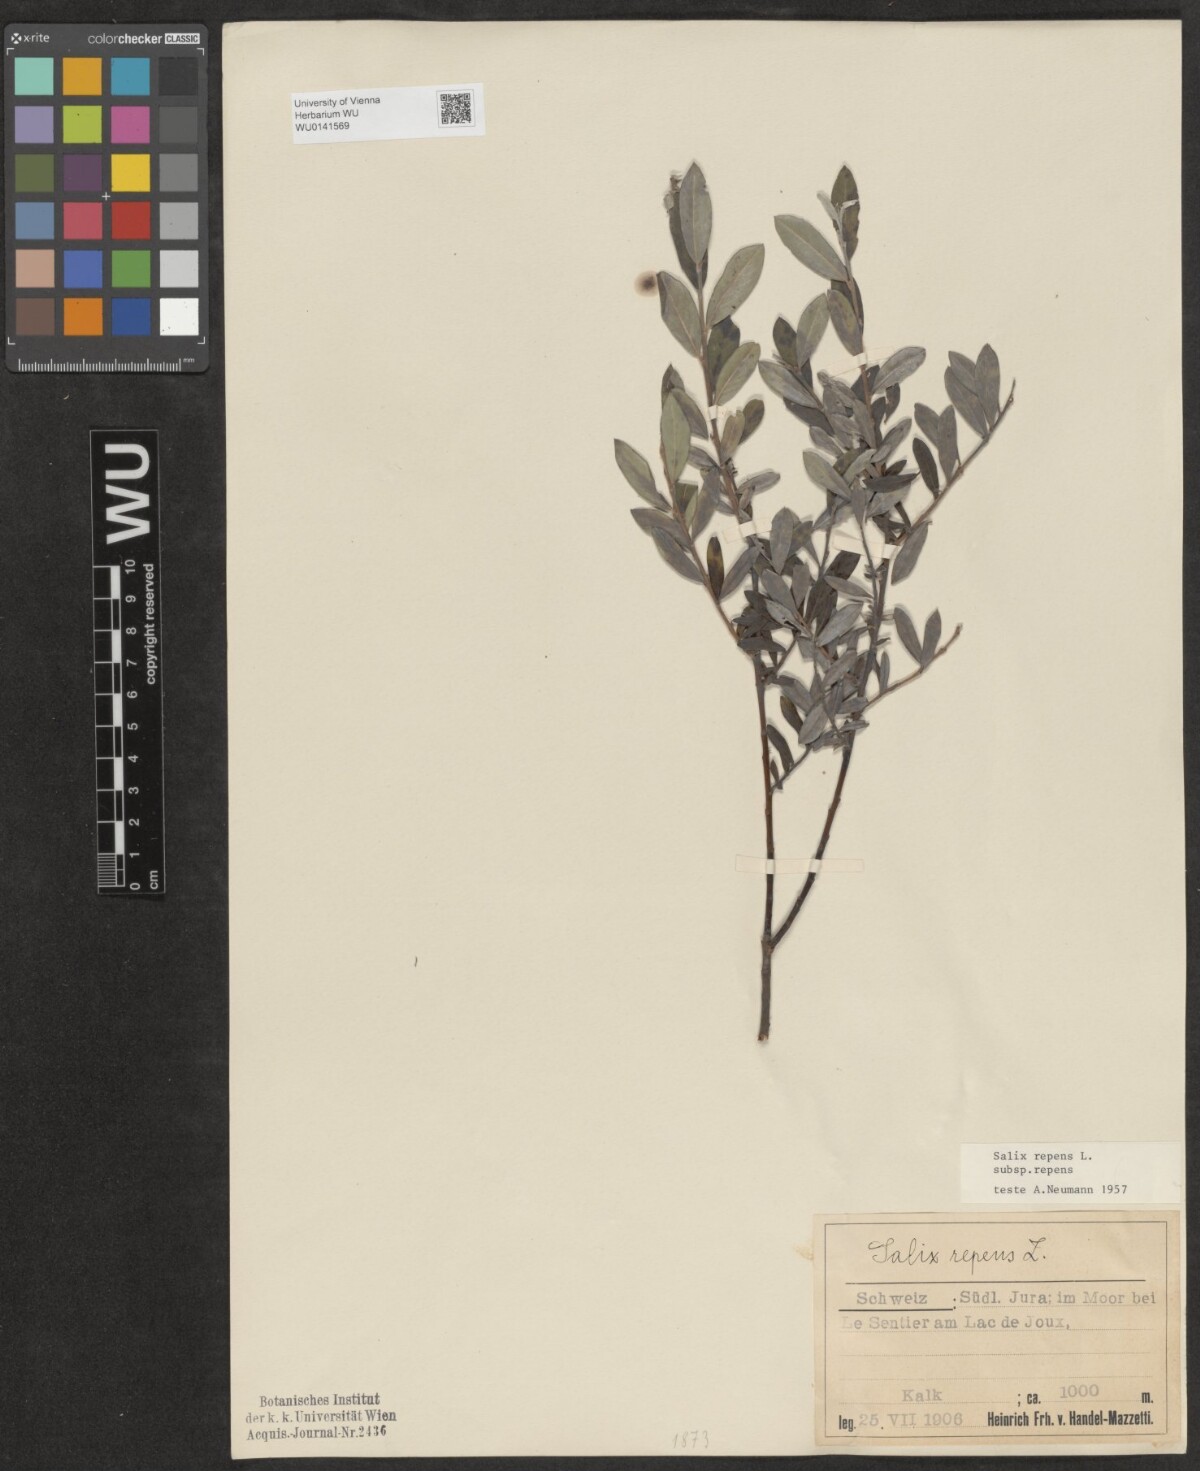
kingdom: Plantae
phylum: Tracheophyta
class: Magnoliopsida
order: Malpighiales
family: Salicaceae
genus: Salix
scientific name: Salix repens
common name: Creeping willow
